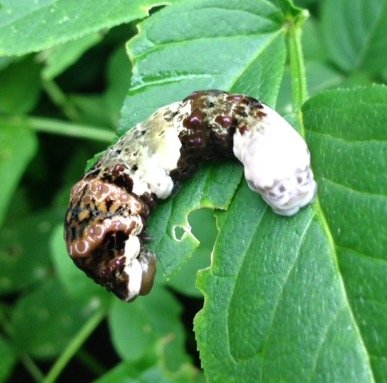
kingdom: Animalia
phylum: Arthropoda
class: Insecta
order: Lepidoptera
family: Papilionidae
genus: Papilio
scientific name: Papilio cresphontes
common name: Eastern Giant Swallowtail
